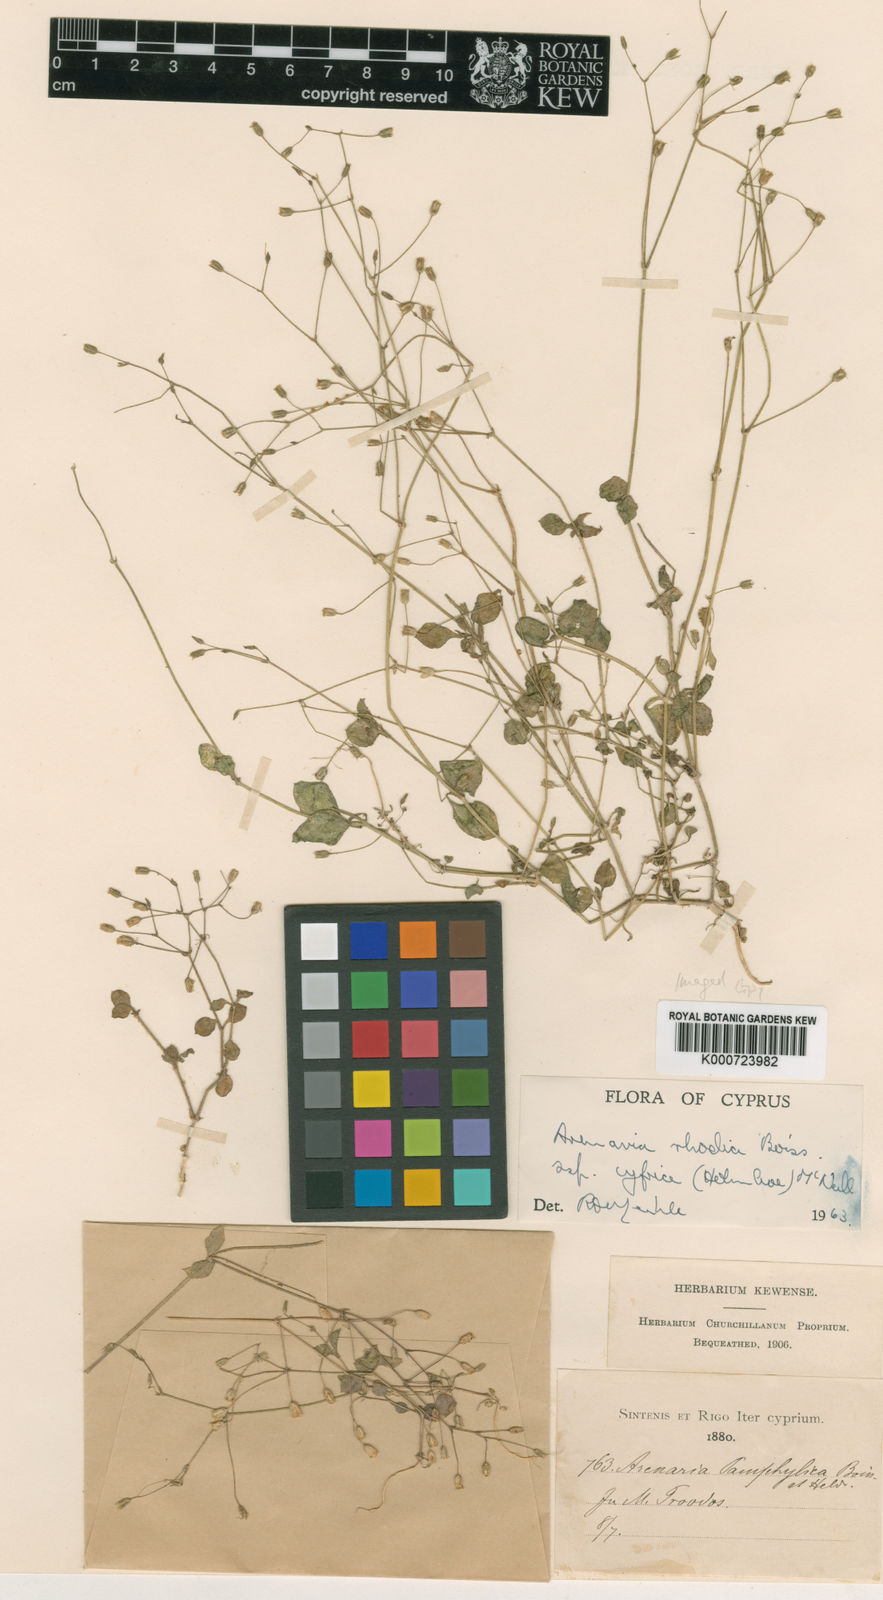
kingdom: Plantae
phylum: Tracheophyta
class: Magnoliopsida
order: Caryophyllales
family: Caryophyllaceae
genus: Arenaria
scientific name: Arenaria rhodia
